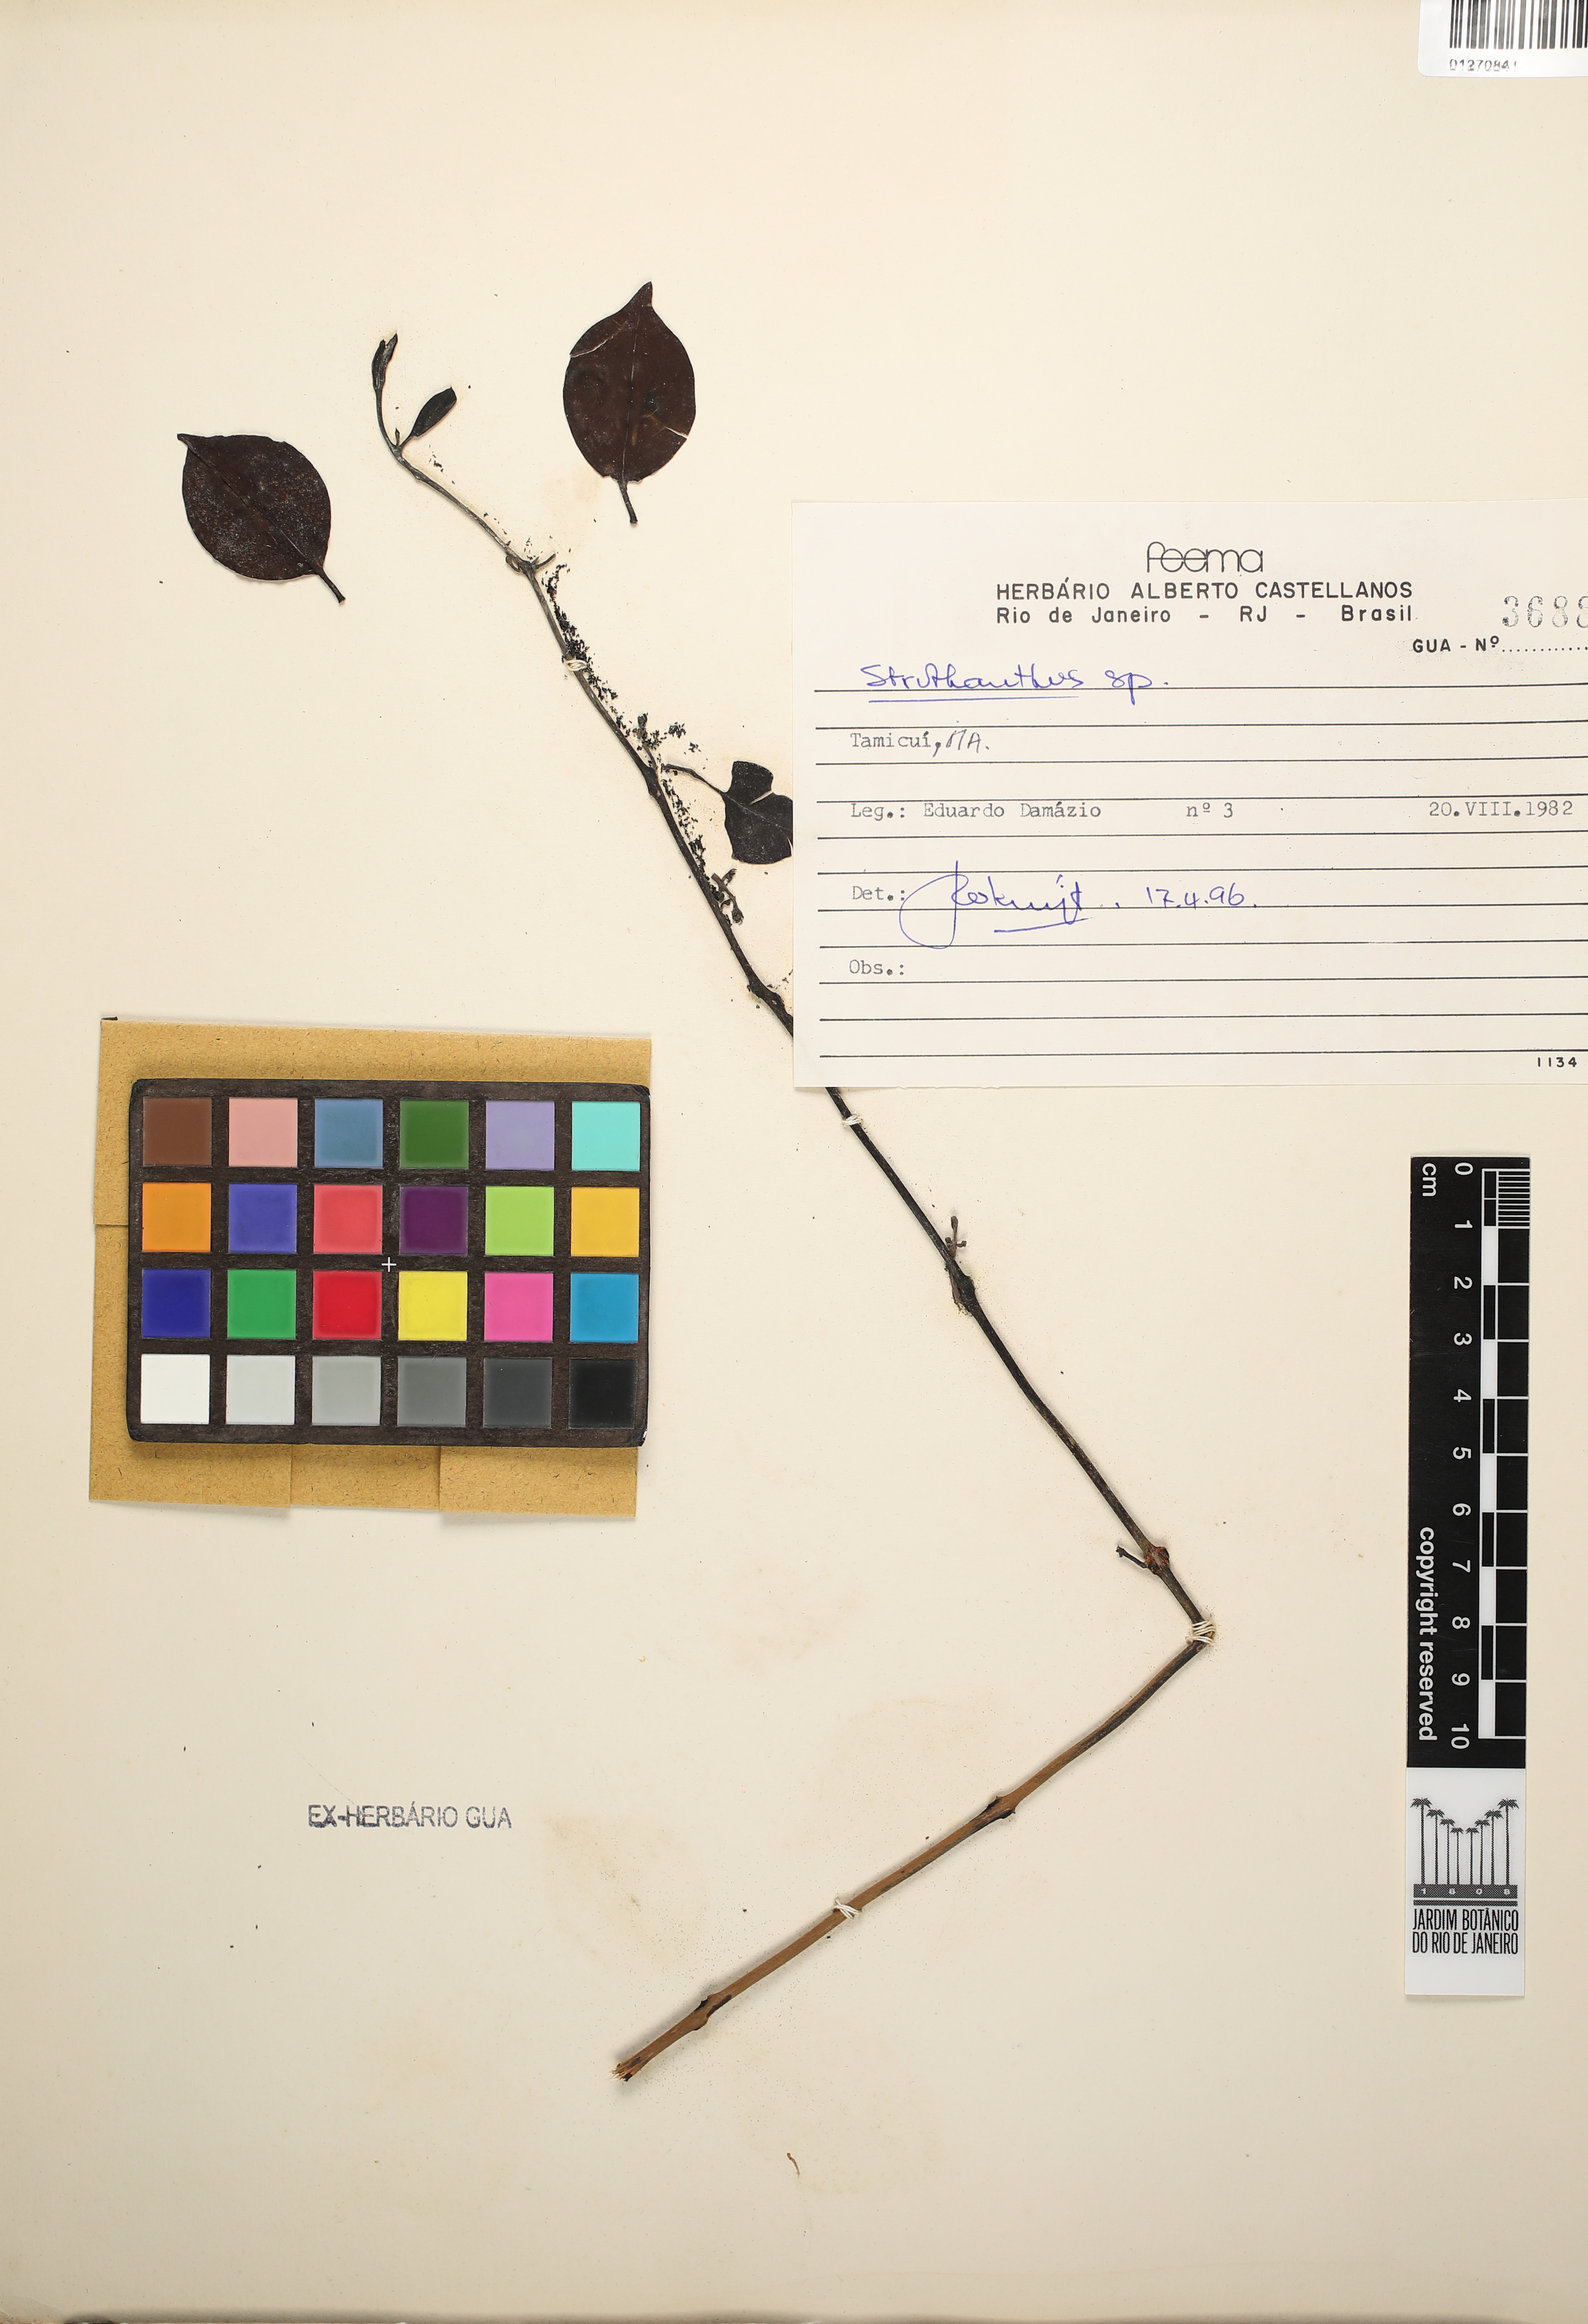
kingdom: Plantae
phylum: Tracheophyta
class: Magnoliopsida
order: Santalales
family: Loranthaceae
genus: Struthanthus
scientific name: Struthanthus
